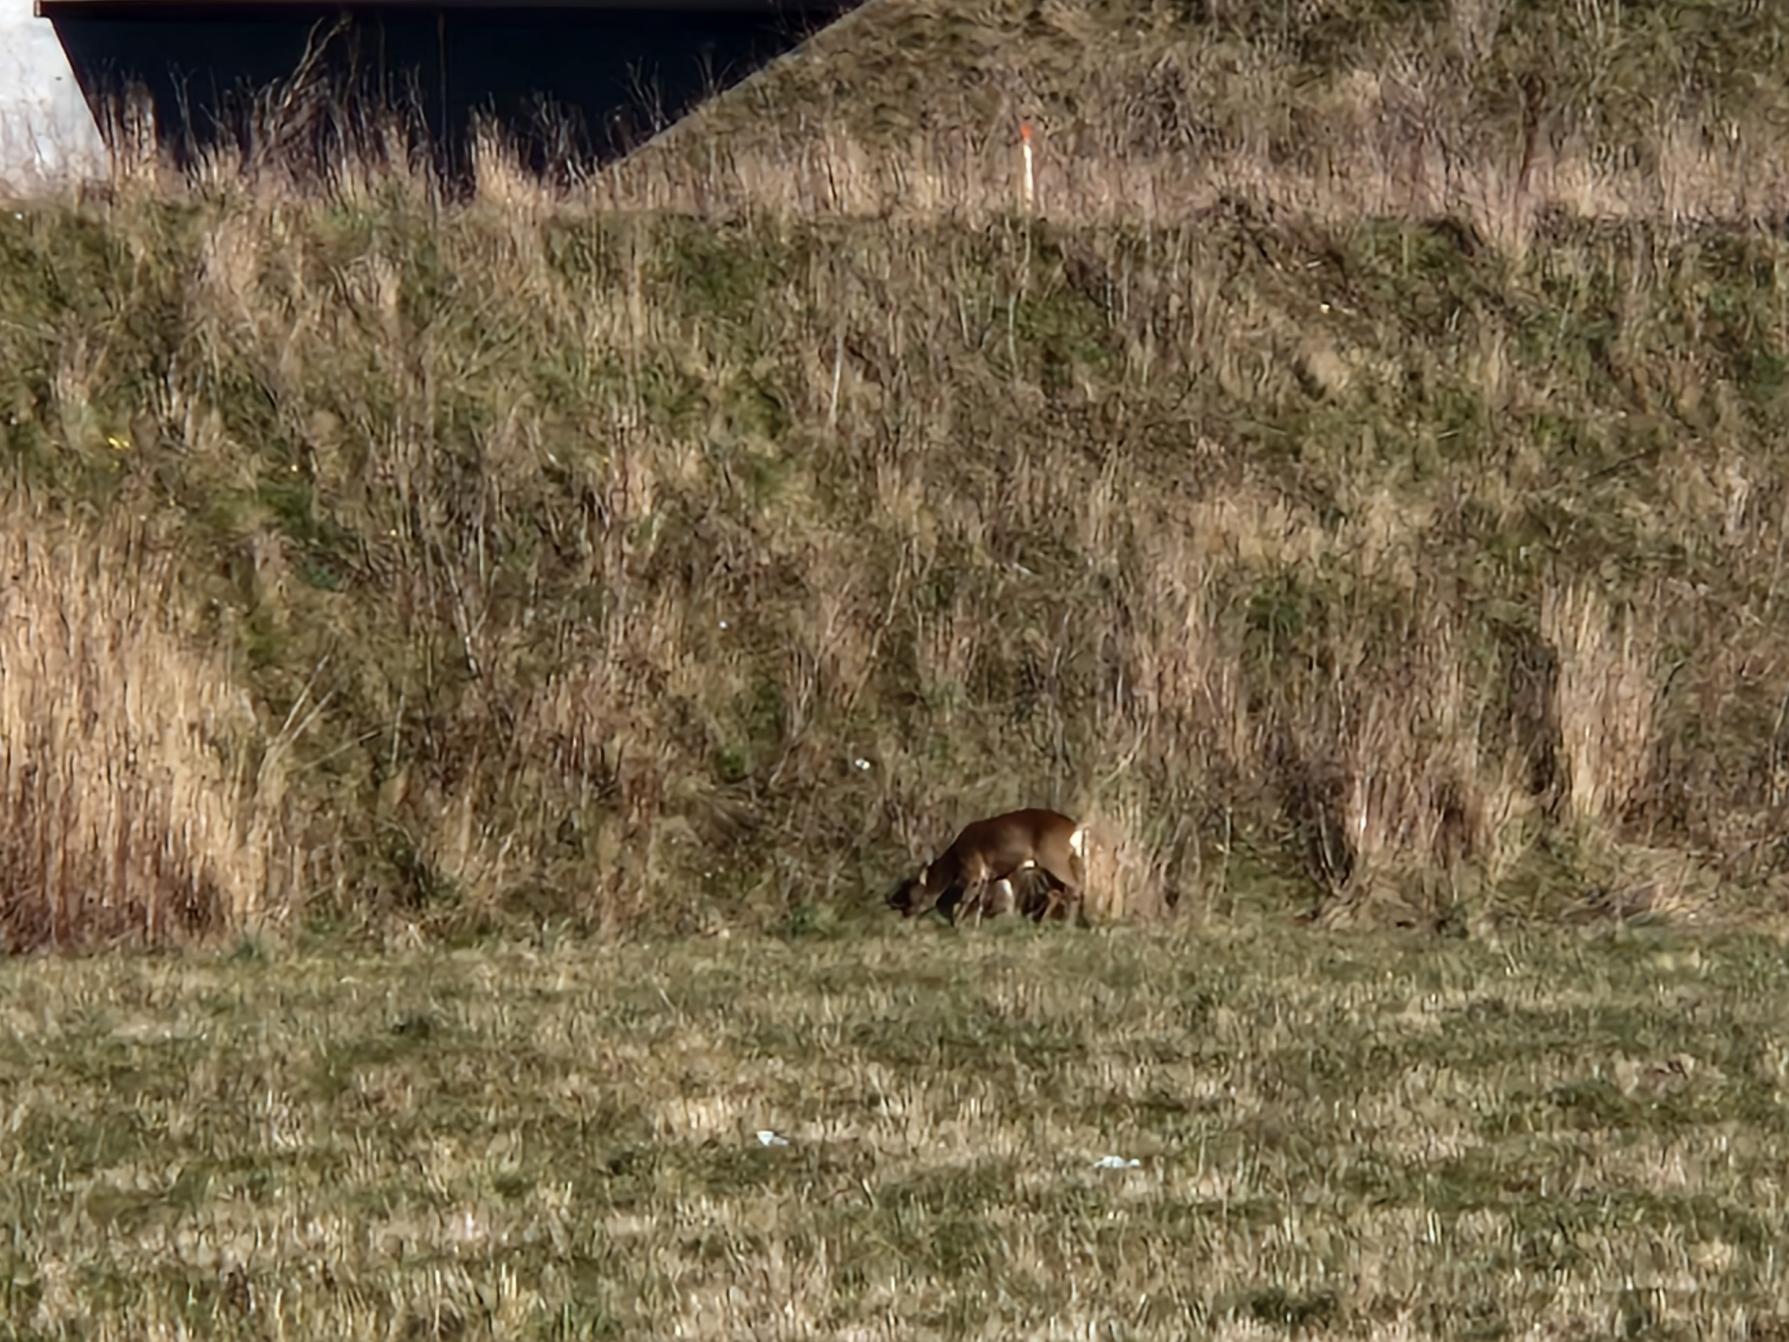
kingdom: Animalia
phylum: Chordata
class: Mammalia
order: Artiodactyla
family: Cervidae
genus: Capreolus
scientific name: Capreolus capreolus
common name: Rådyr
